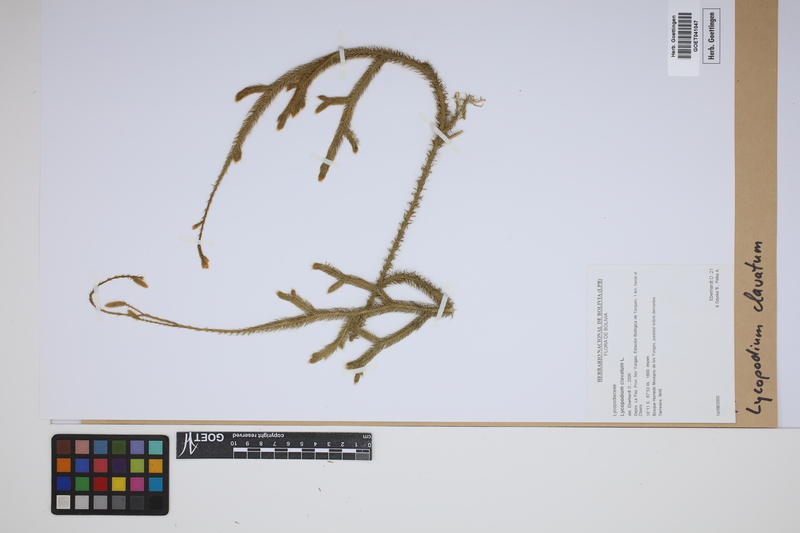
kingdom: Plantae
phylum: Tracheophyta
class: Lycopodiopsida
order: Lycopodiales
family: Lycopodiaceae
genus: Lycopodium
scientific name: Lycopodium clavatum
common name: Stag's-horn clubmoss
